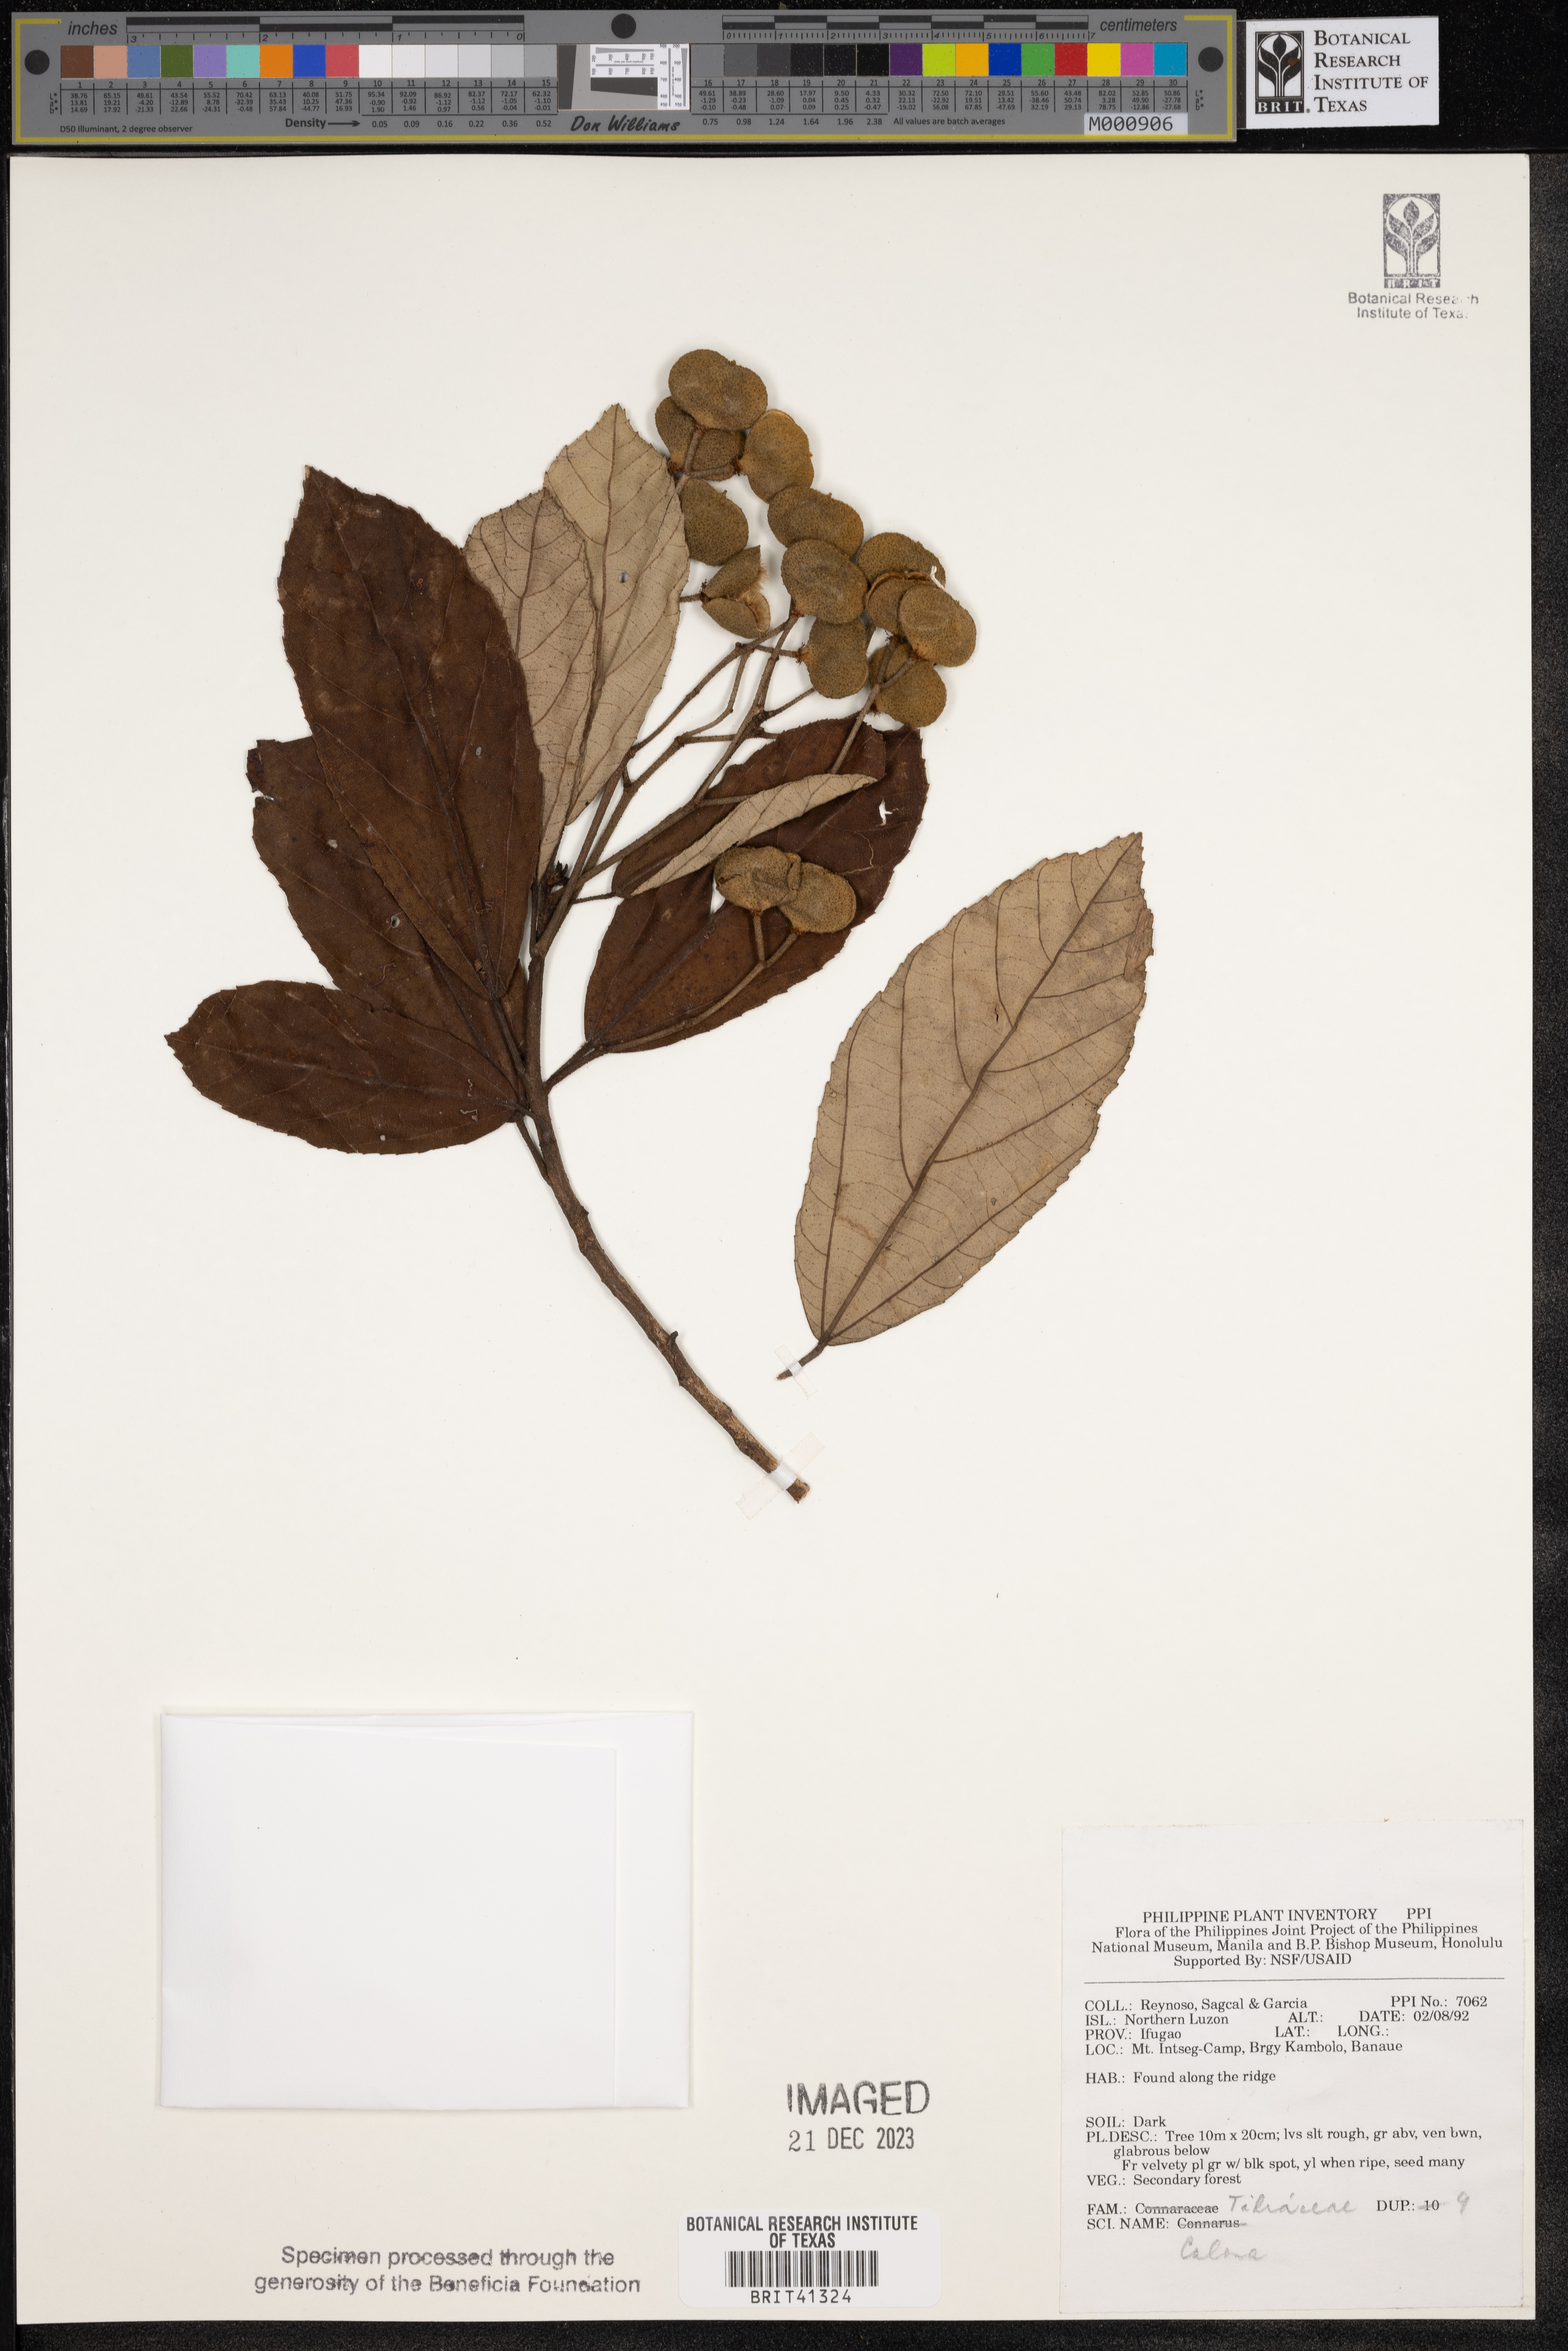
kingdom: Plantae
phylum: Tracheophyta
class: Magnoliopsida
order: Malvales
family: Malvaceae
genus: Colona
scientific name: Colona
